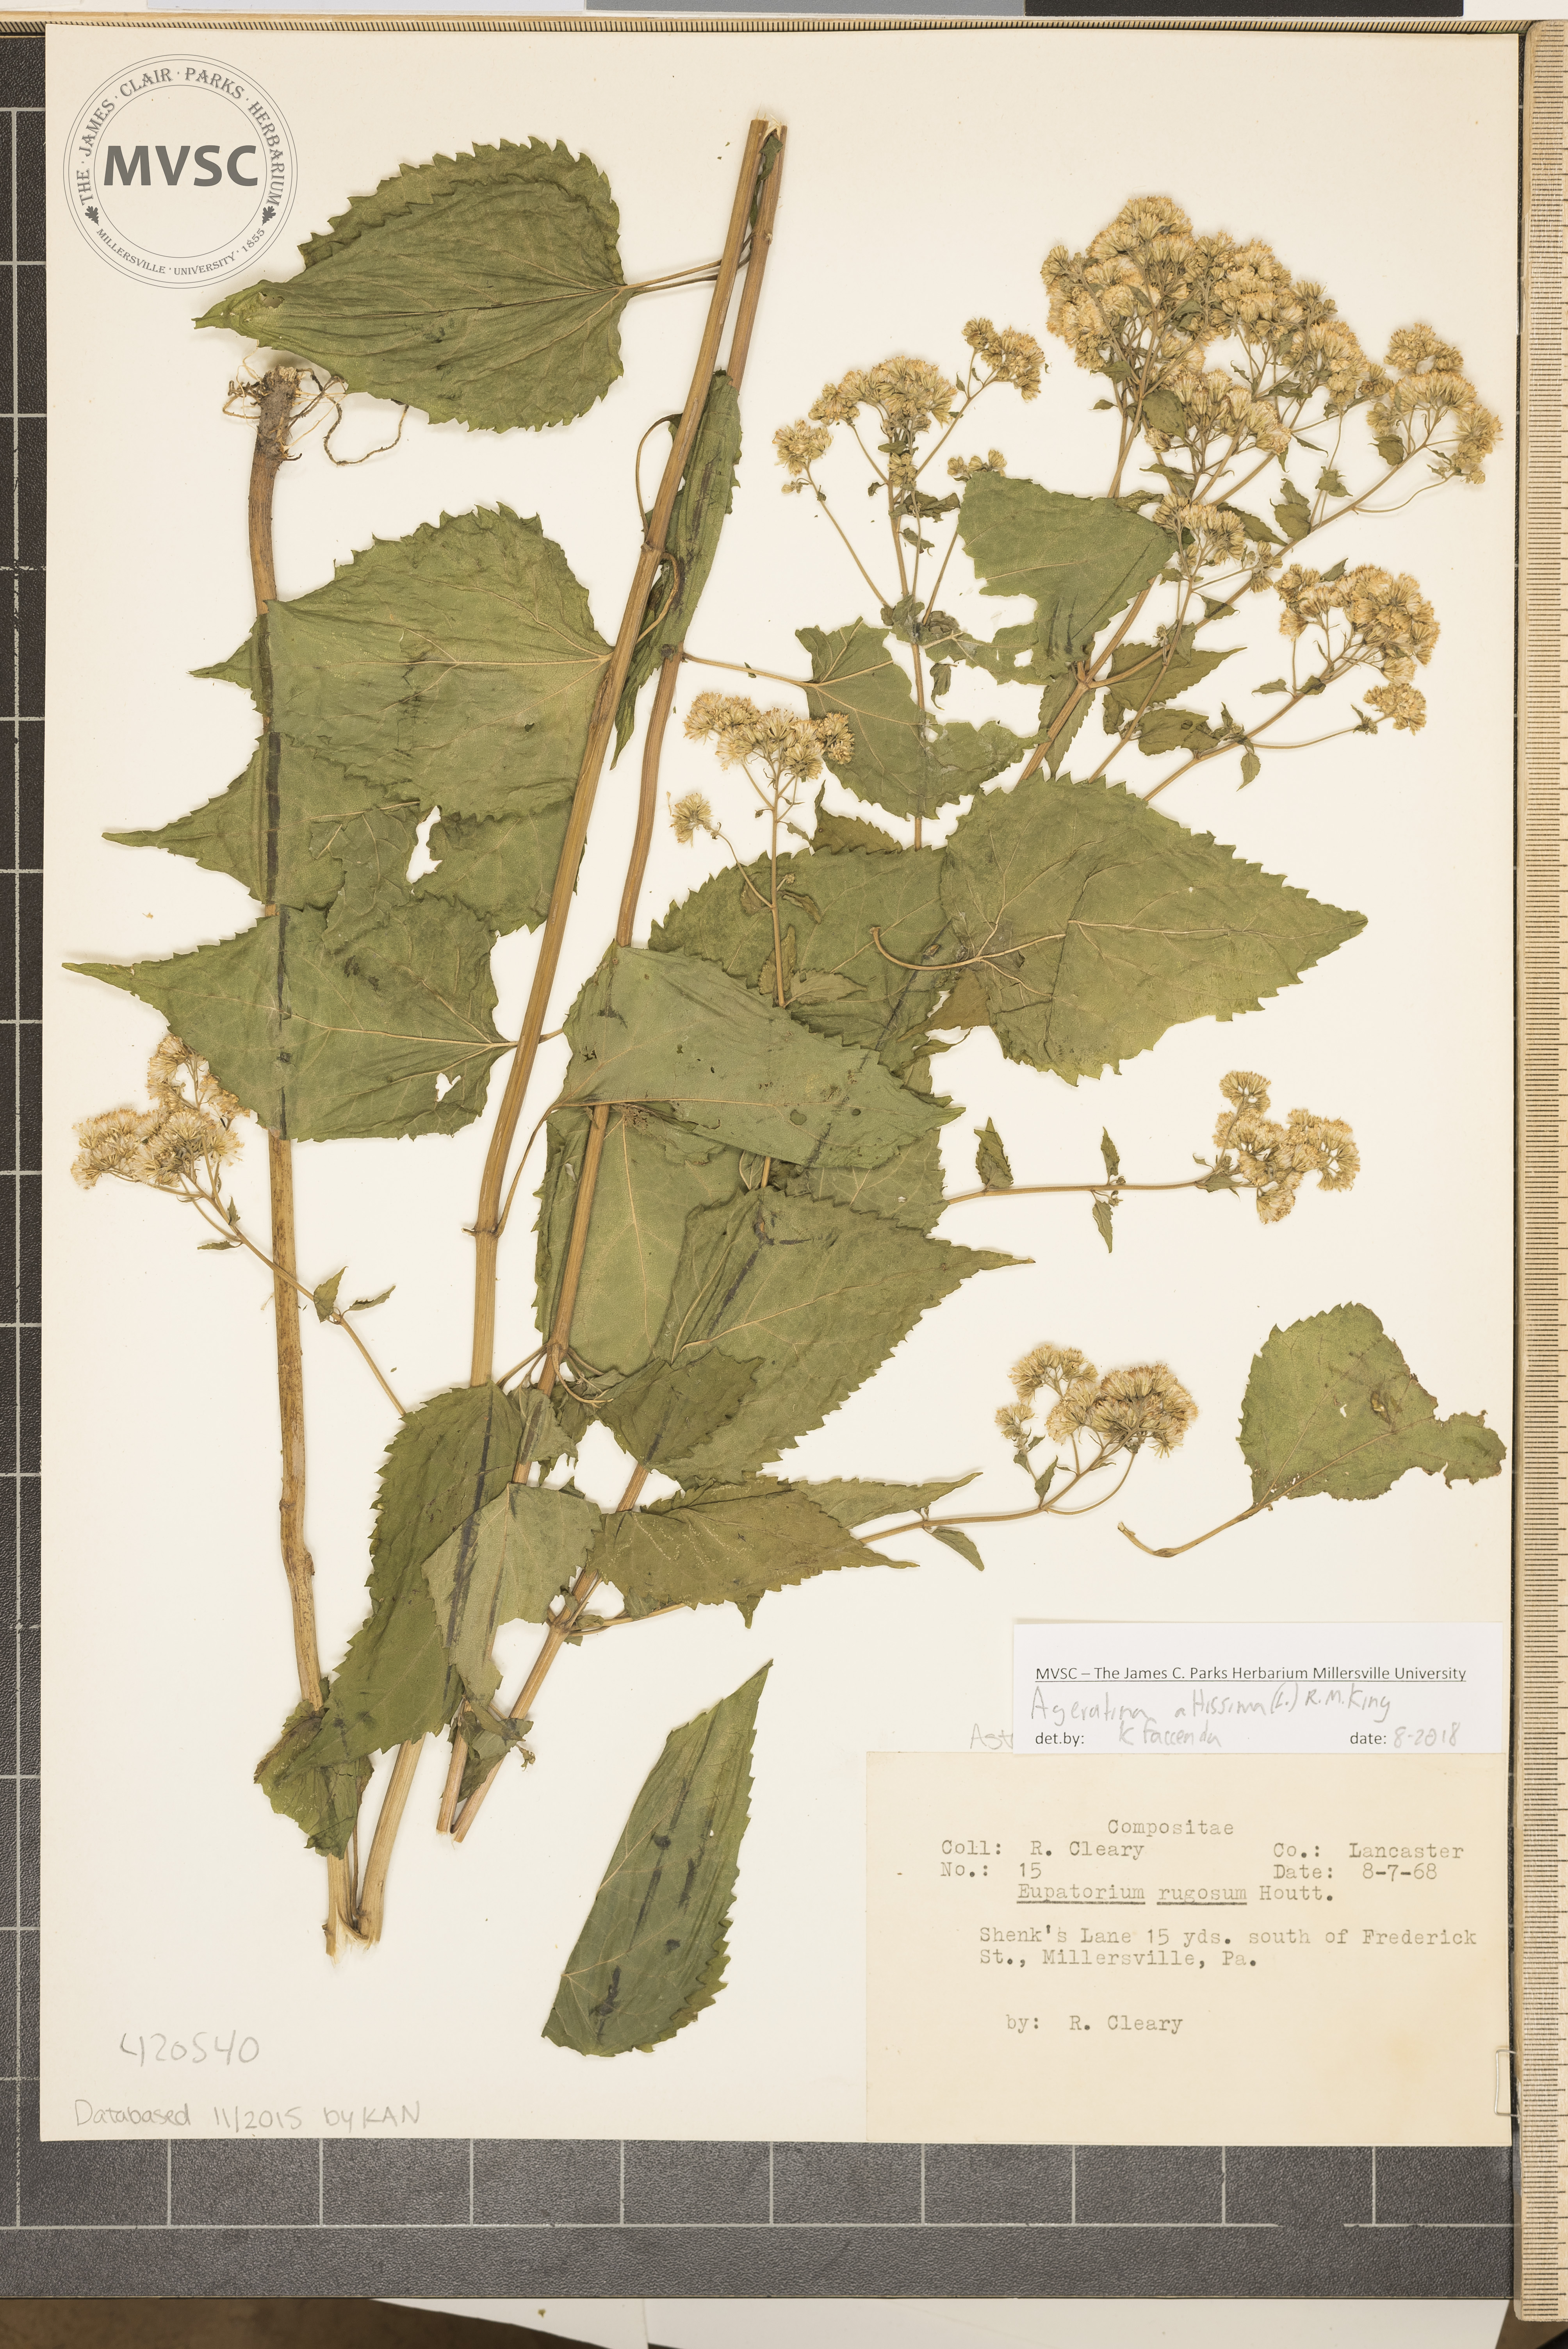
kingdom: Plantae
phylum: Tracheophyta
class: Magnoliopsida
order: Asterales
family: Asteraceae
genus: Ageratina
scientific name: Ageratina altissima
